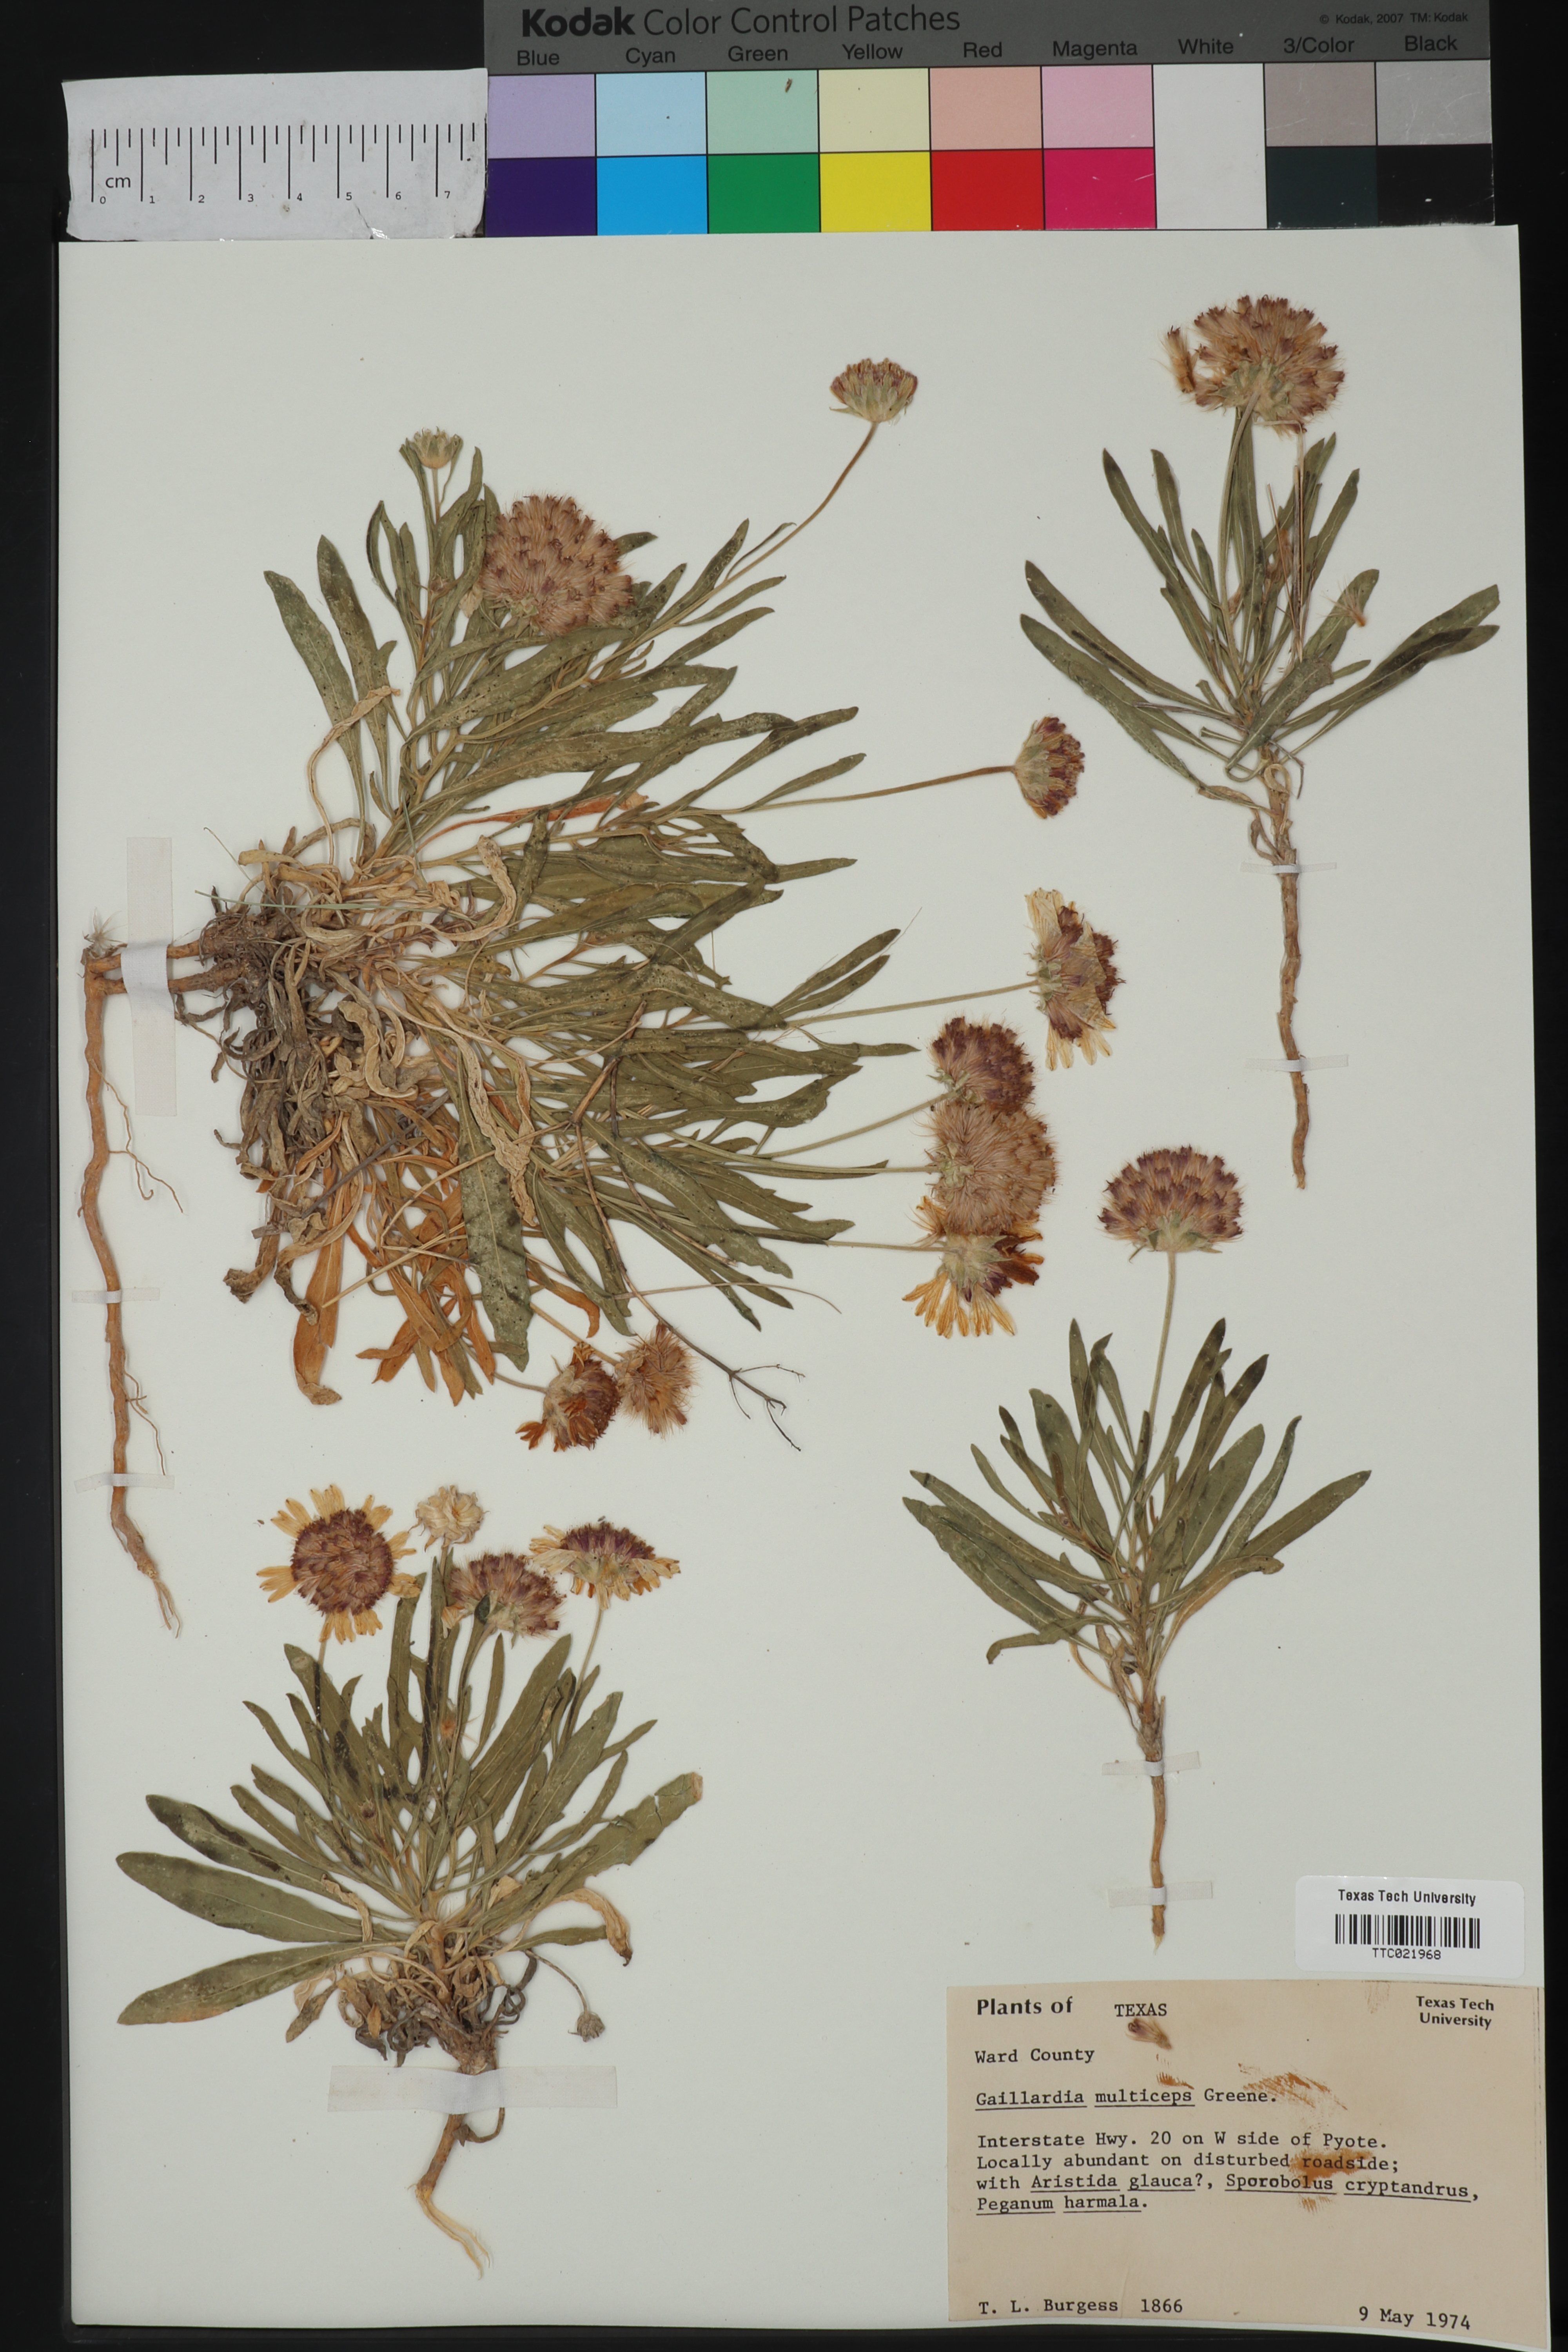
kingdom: Plantae
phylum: Tracheophyta
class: Magnoliopsida
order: Asterales
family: Asteraceae
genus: Gaillardia
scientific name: Gaillardia multiceps
